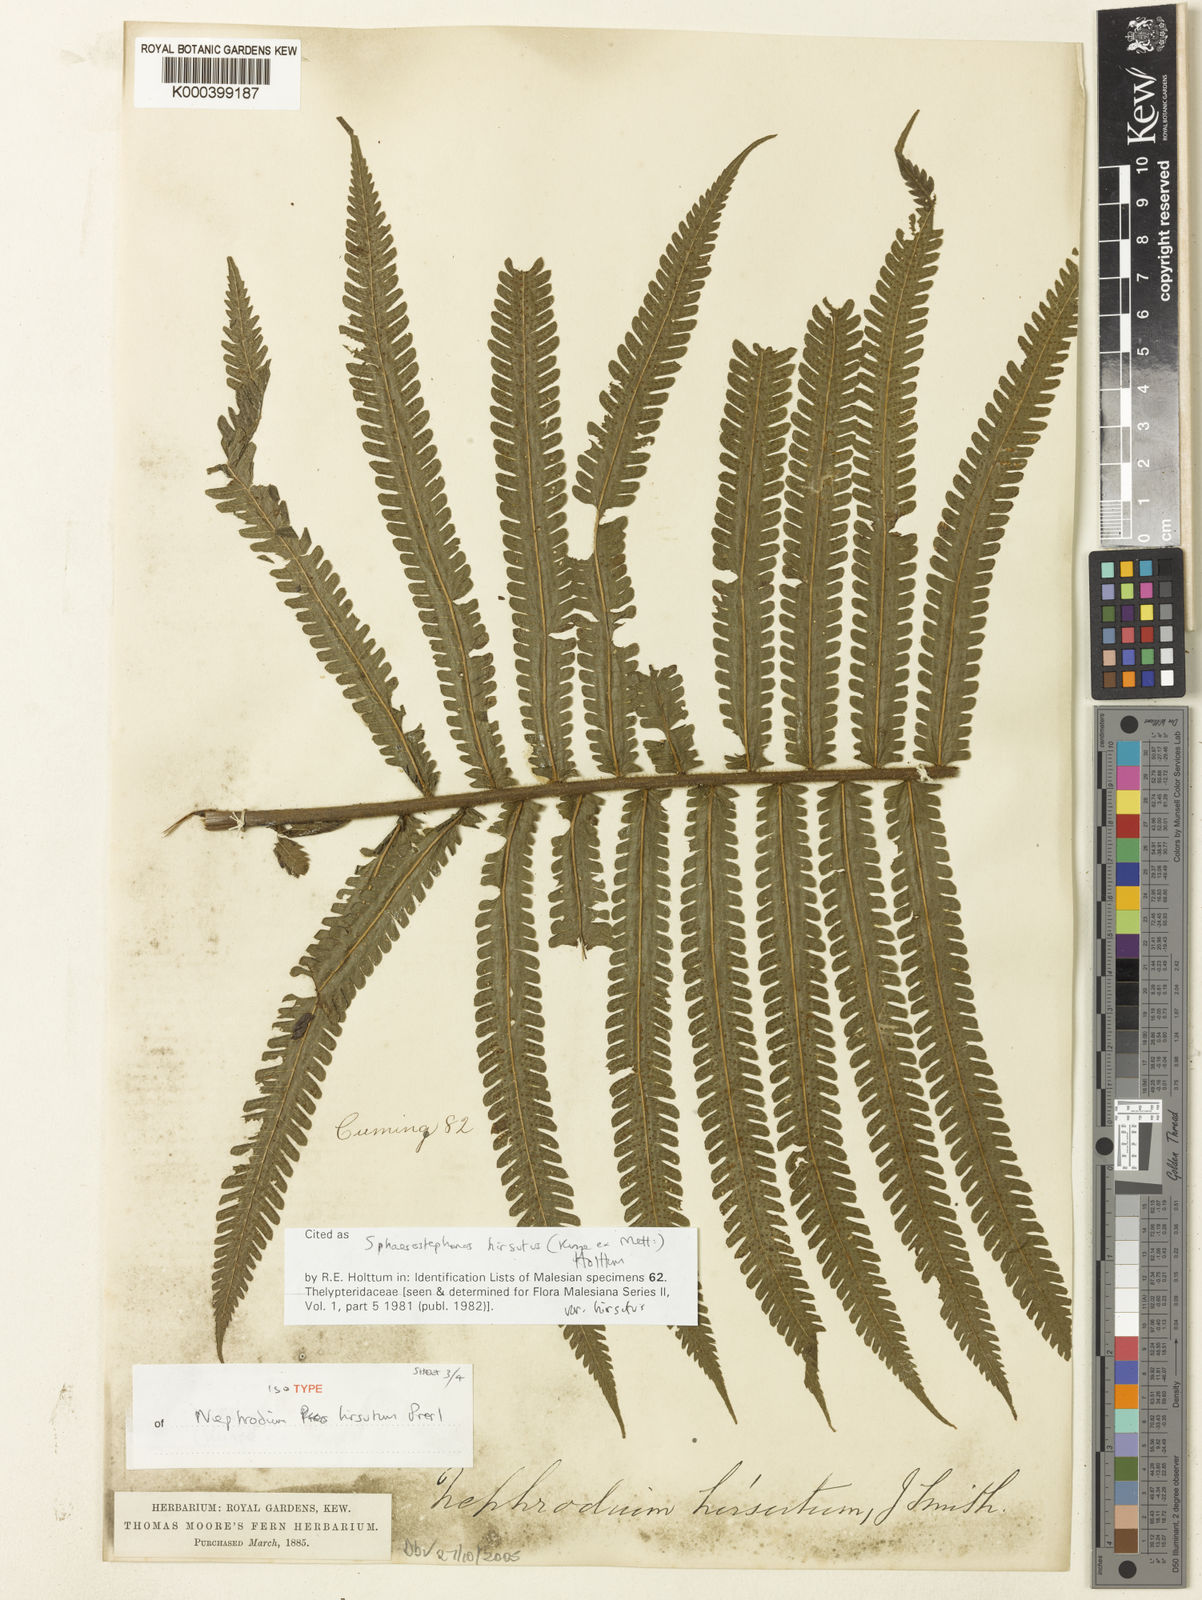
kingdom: Plantae
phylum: Tracheophyta
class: Polypodiopsida
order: Polypodiales
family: Thelypteridaceae
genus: Sphaerostephanos
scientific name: Sphaerostephanos hirsutus
